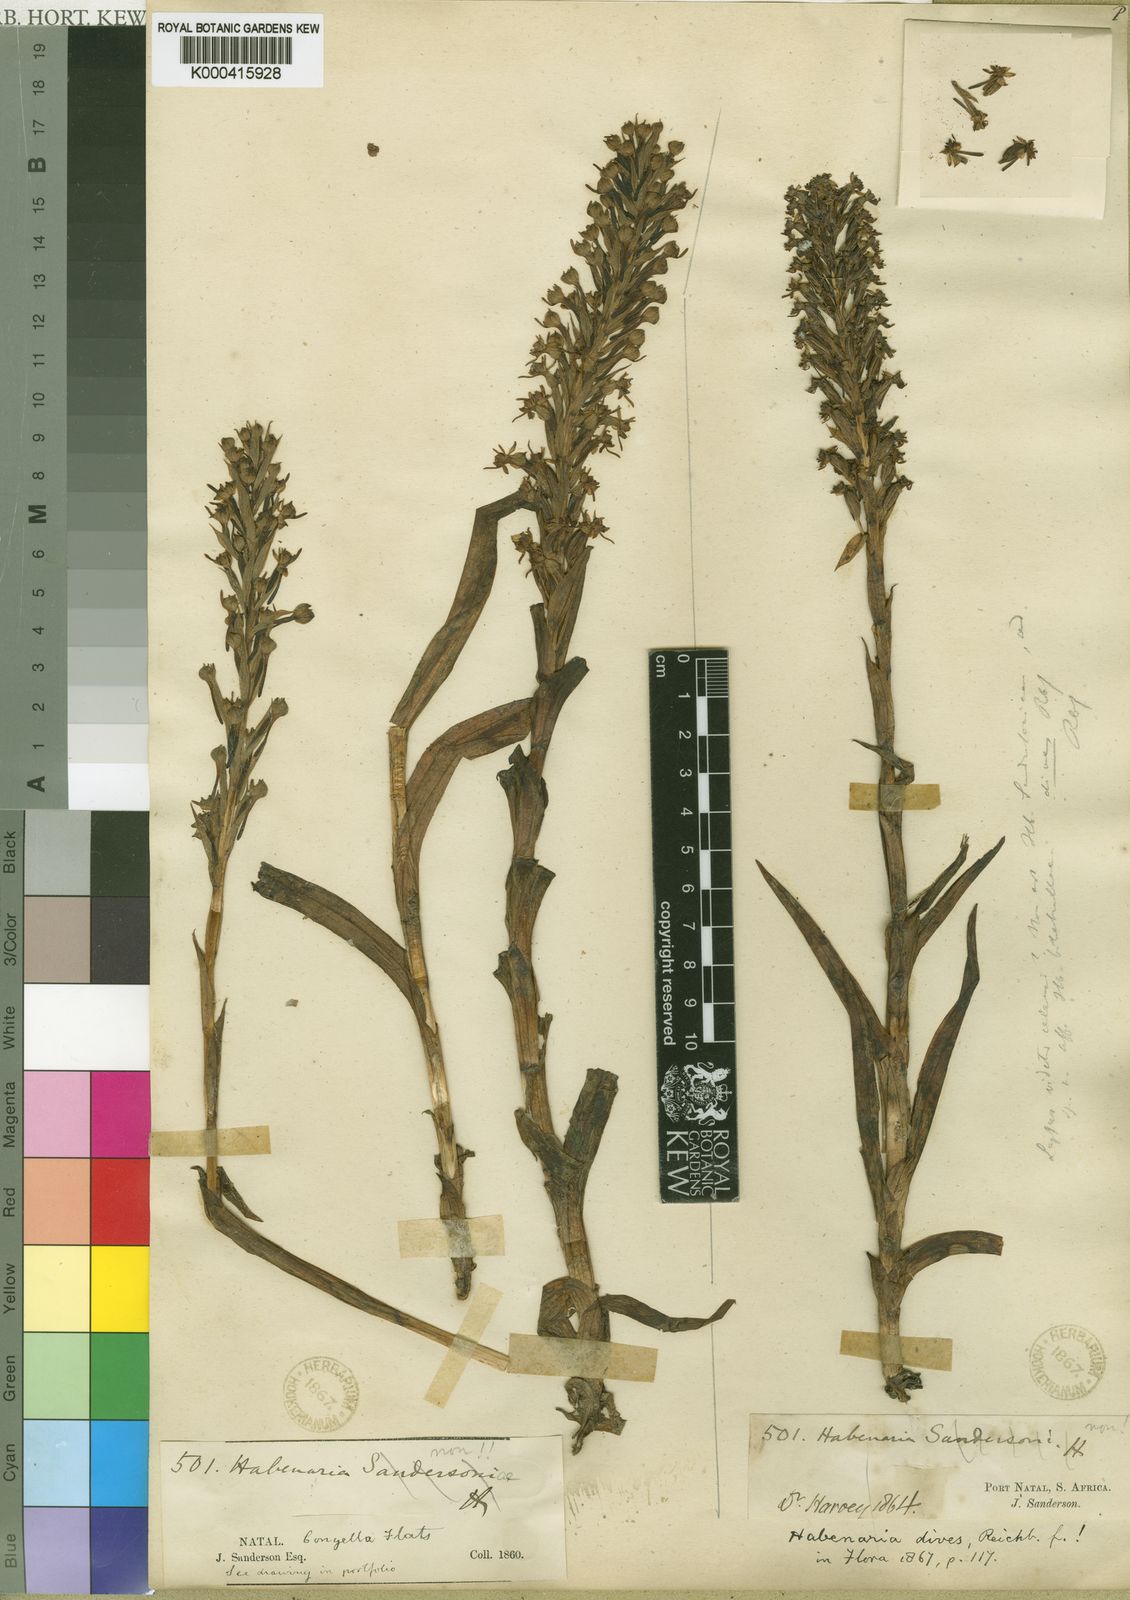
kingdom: Plantae
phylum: Tracheophyta
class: Liliopsida
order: Asparagales
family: Orchidaceae
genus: Habenaria
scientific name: Habenaria dives
